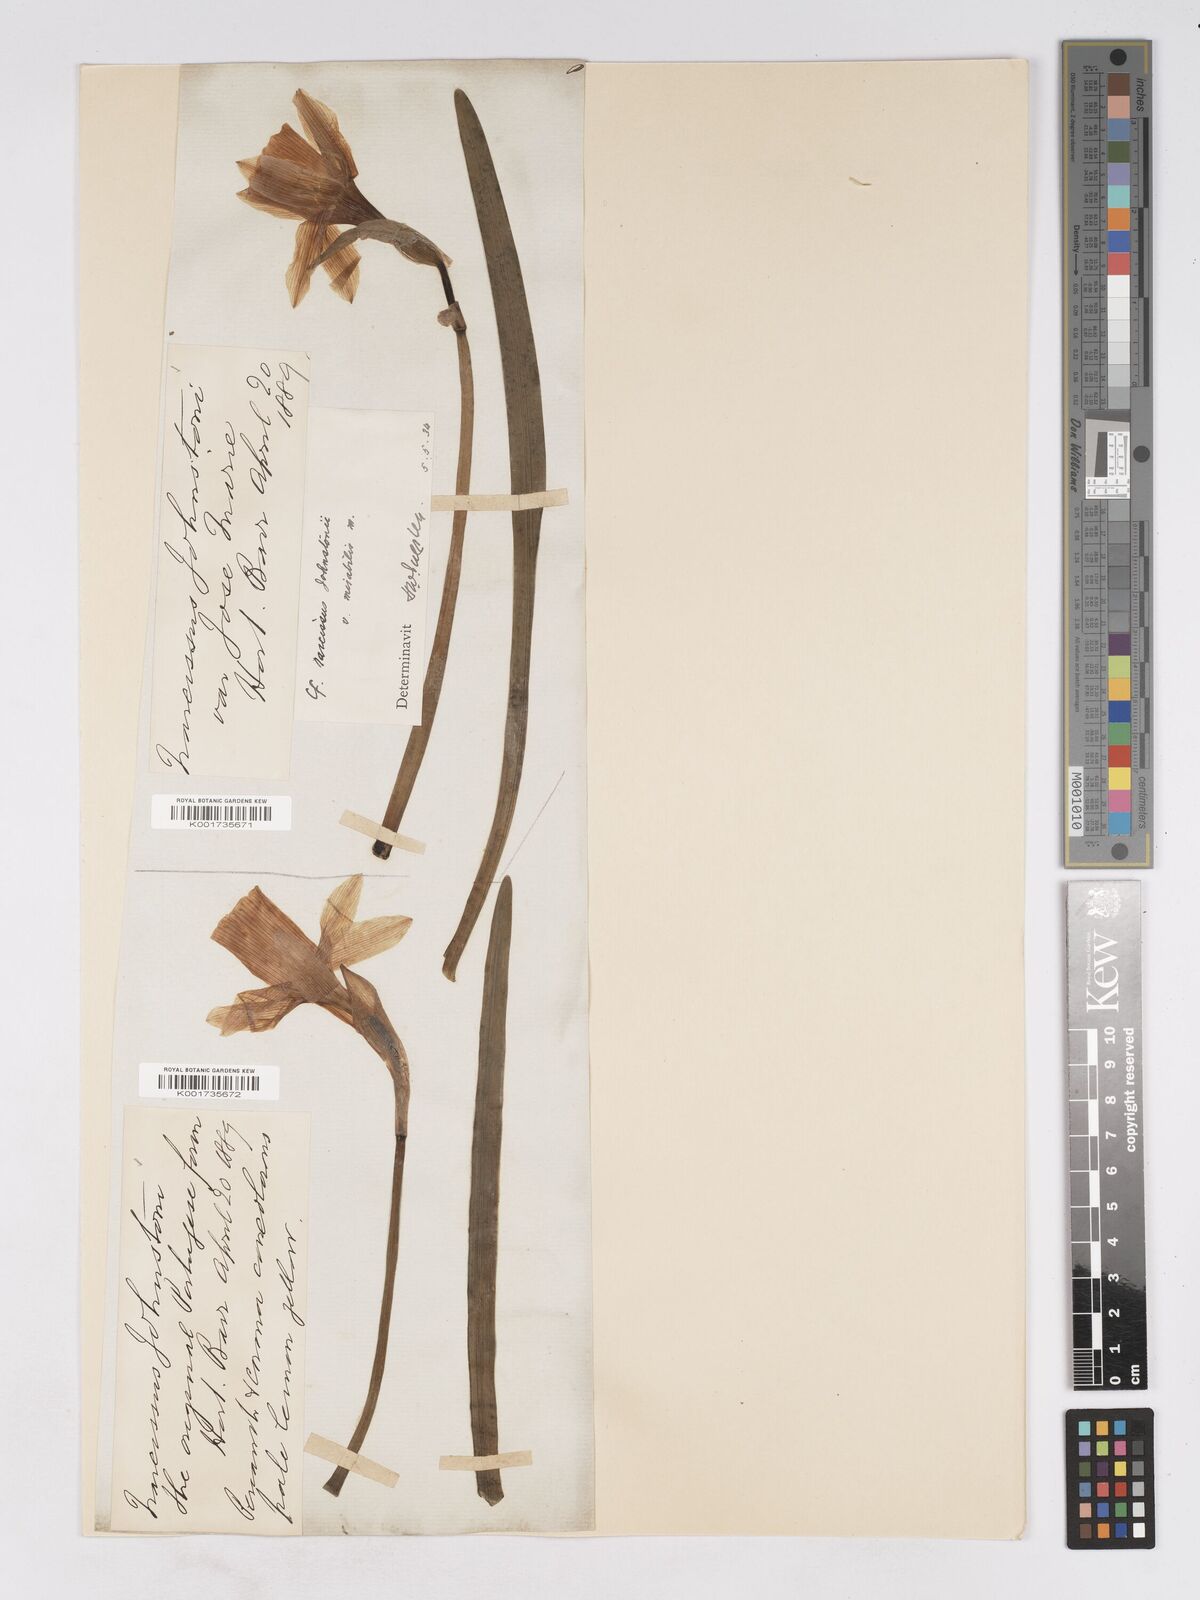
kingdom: Plantae
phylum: Tracheophyta
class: Liliopsida
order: Asparagales
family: Amaryllidaceae
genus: Narcissus
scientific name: Narcissus taitii
